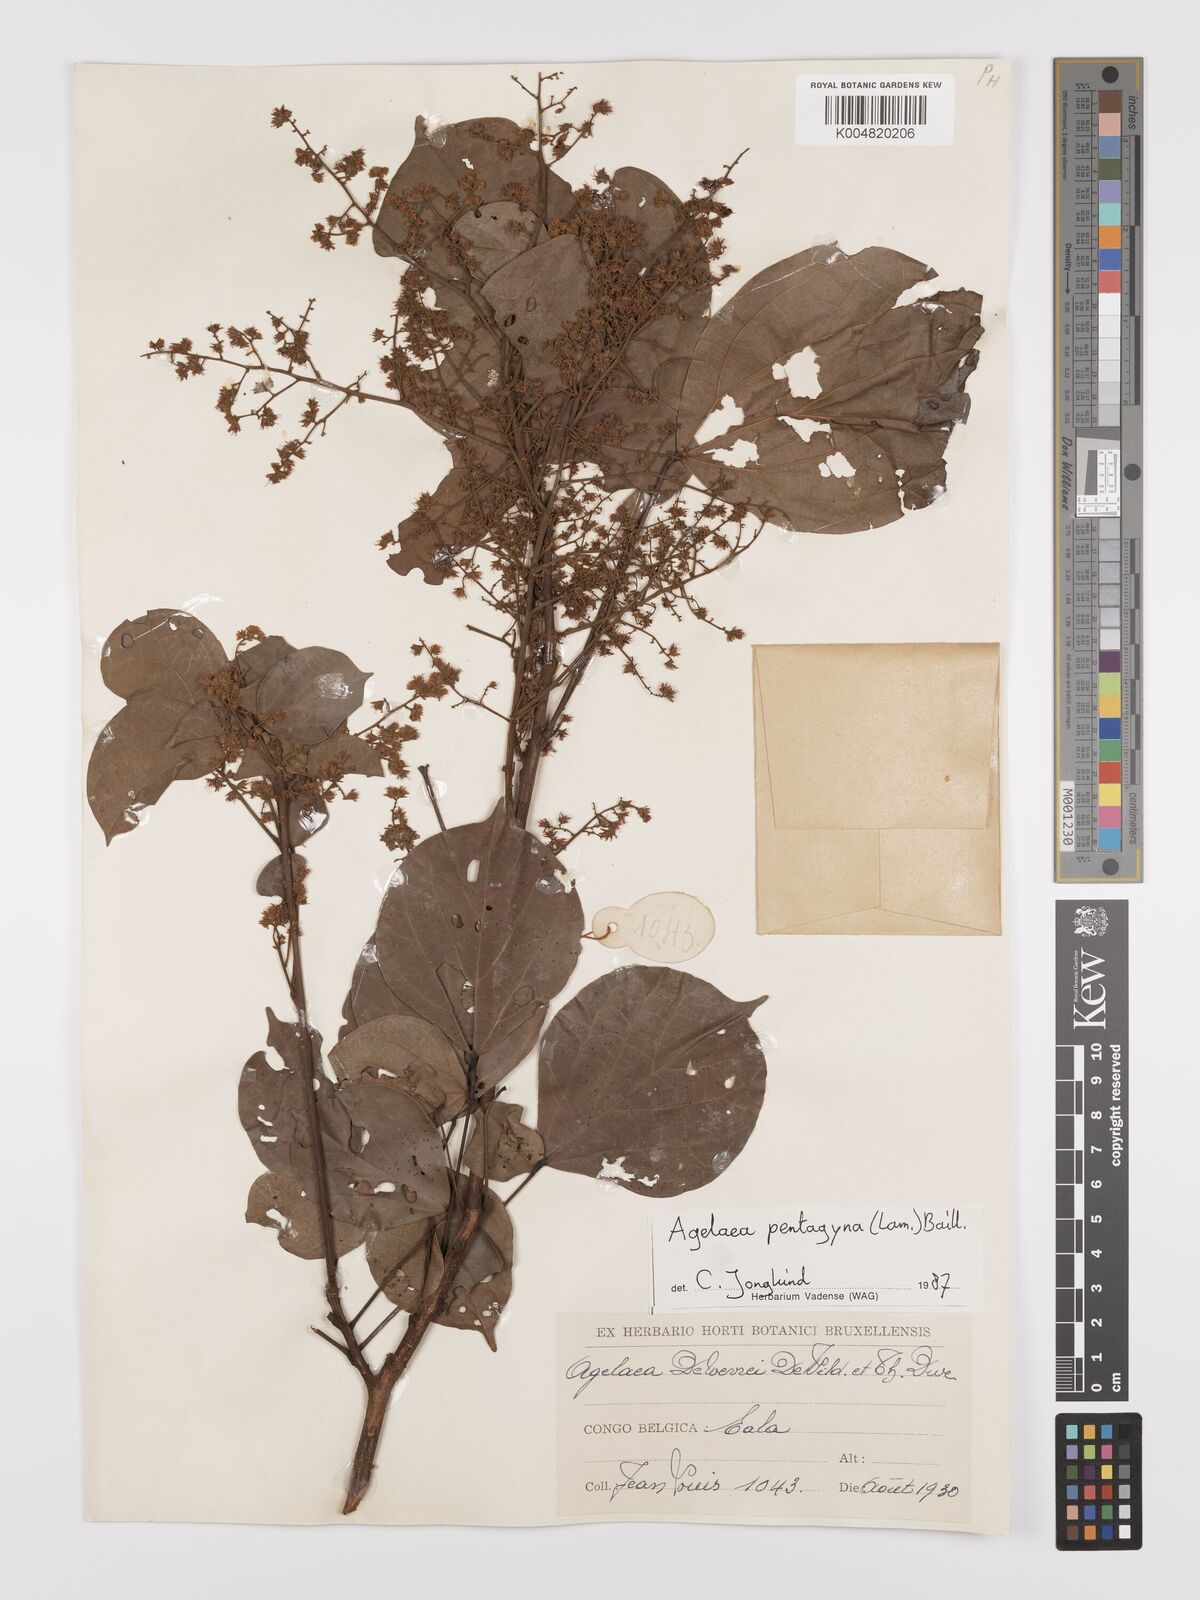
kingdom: Plantae
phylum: Tracheophyta
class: Magnoliopsida
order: Oxalidales
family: Connaraceae
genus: Agelaea
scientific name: Agelaea pentagyna
